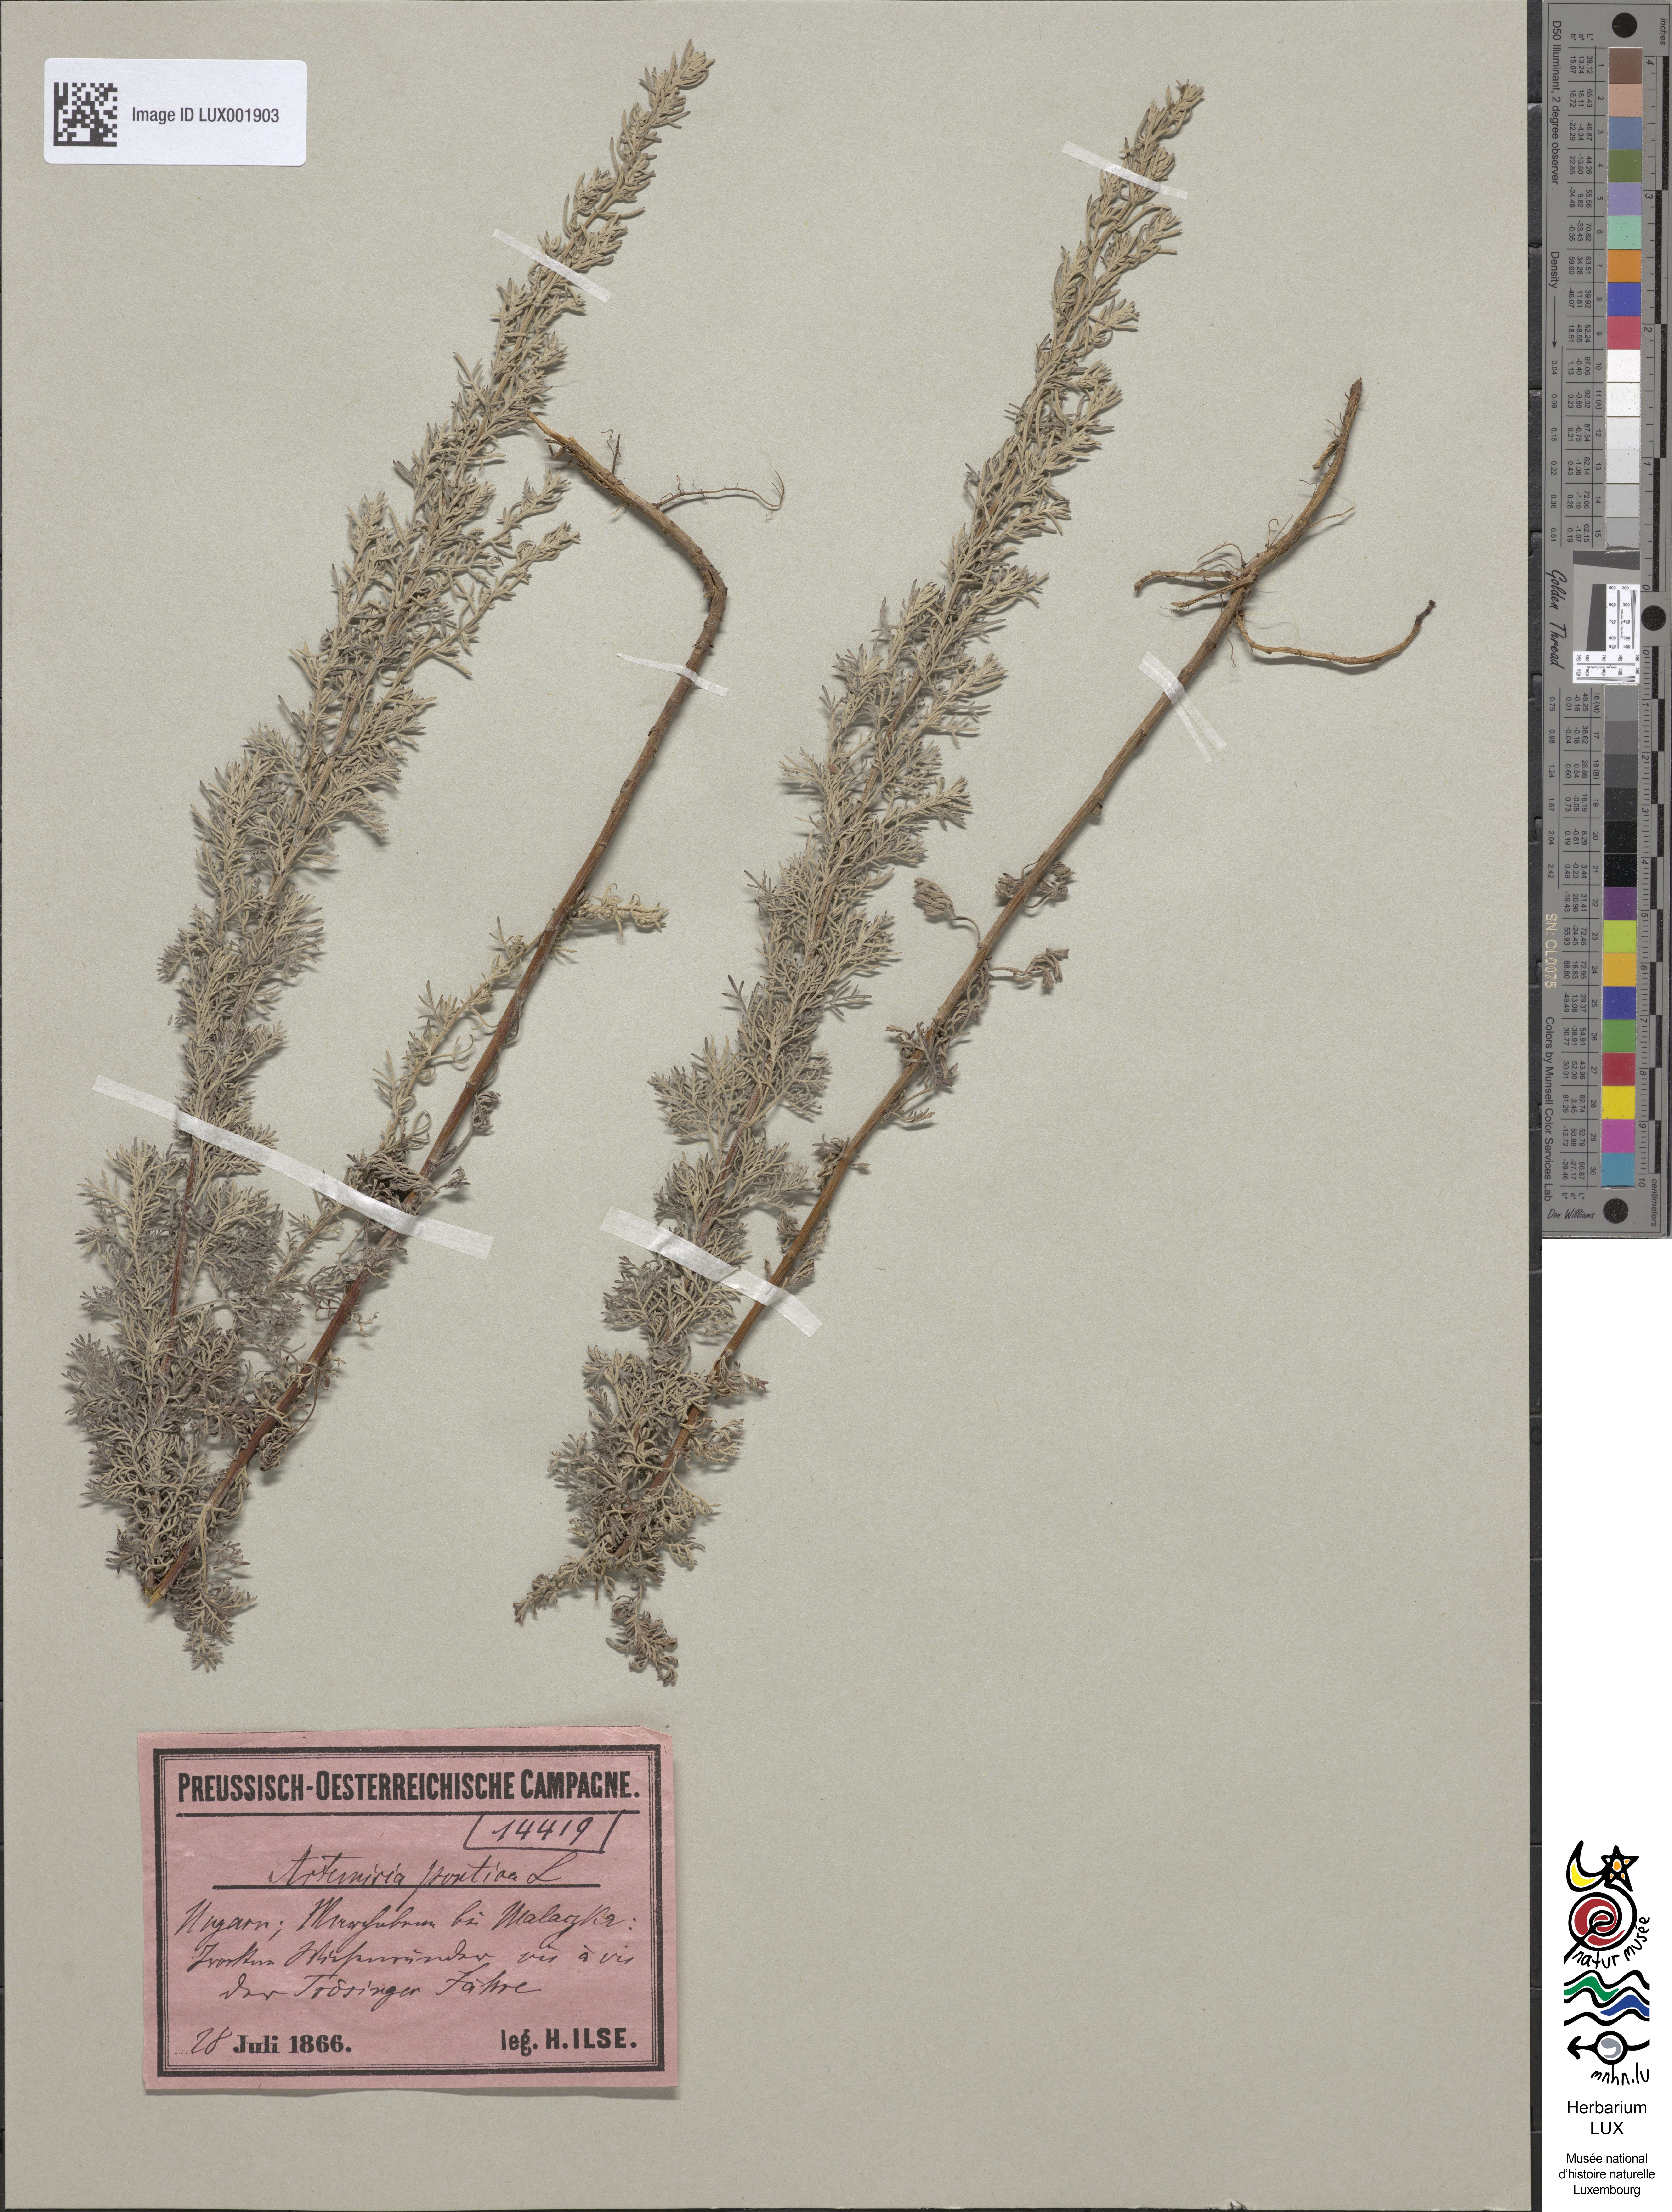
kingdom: Plantae
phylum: Tracheophyta
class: Magnoliopsida
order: Asterales
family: Asteraceae
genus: Artemisia
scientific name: Artemisia pontica
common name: Roman wormwood
